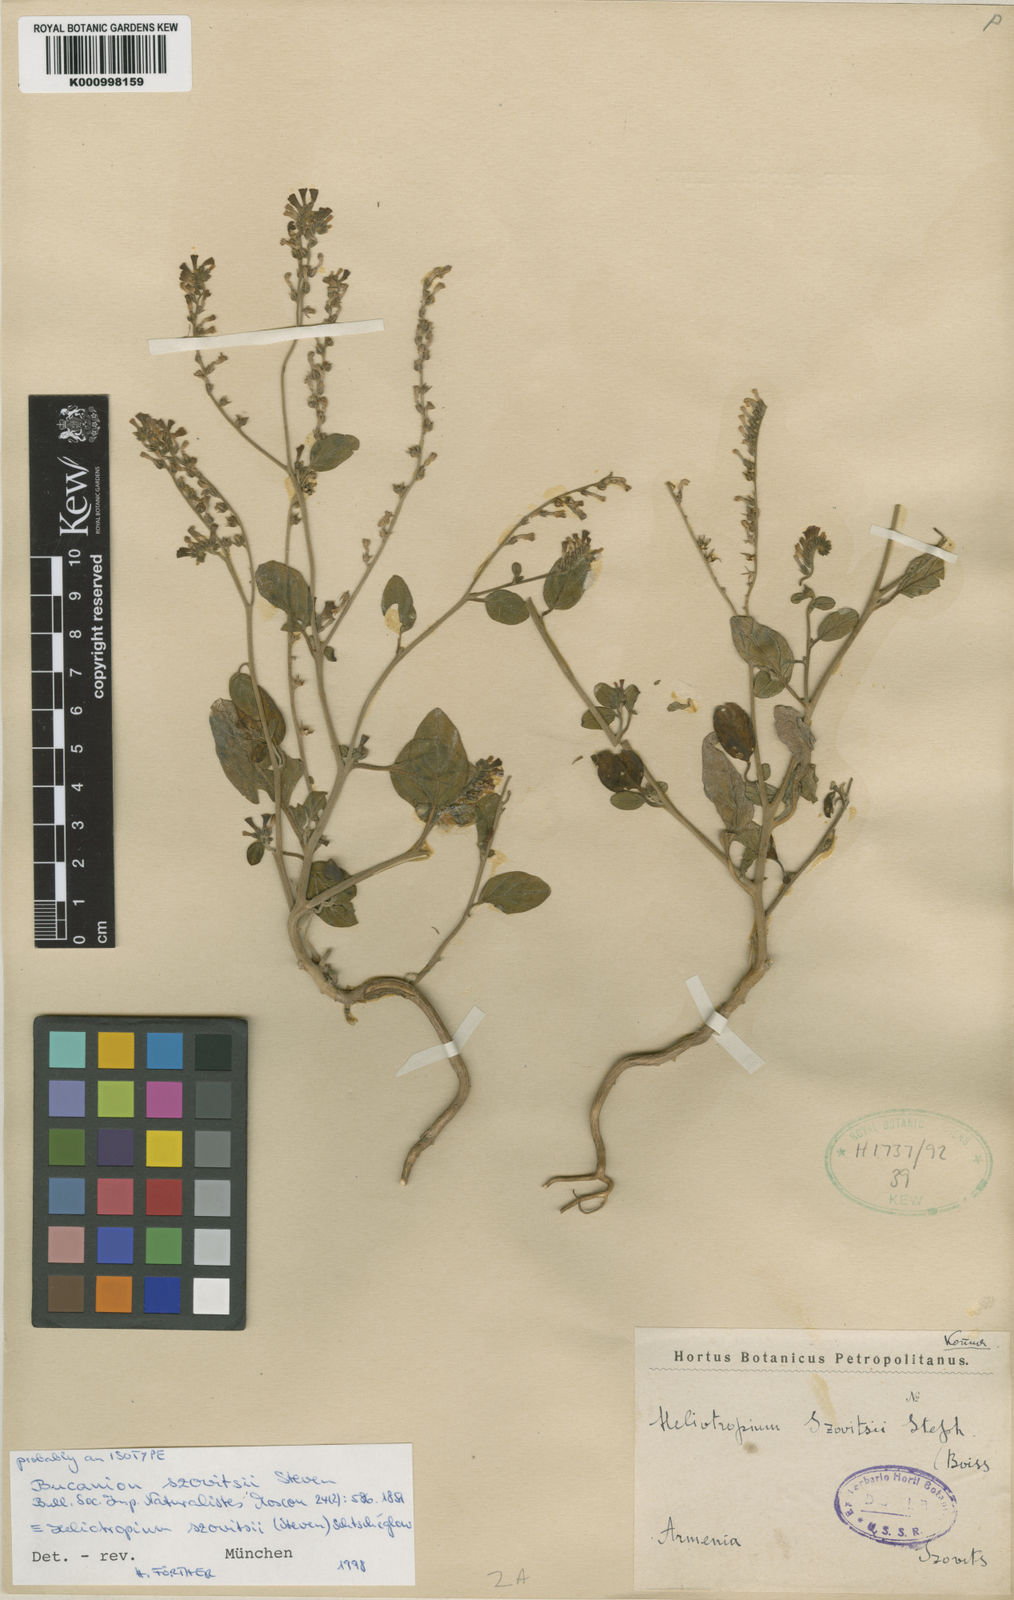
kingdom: Plantae
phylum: Tracheophyta
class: Magnoliopsida
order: Boraginales
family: Heliotropiaceae
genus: Heliotropium
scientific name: Heliotropium
